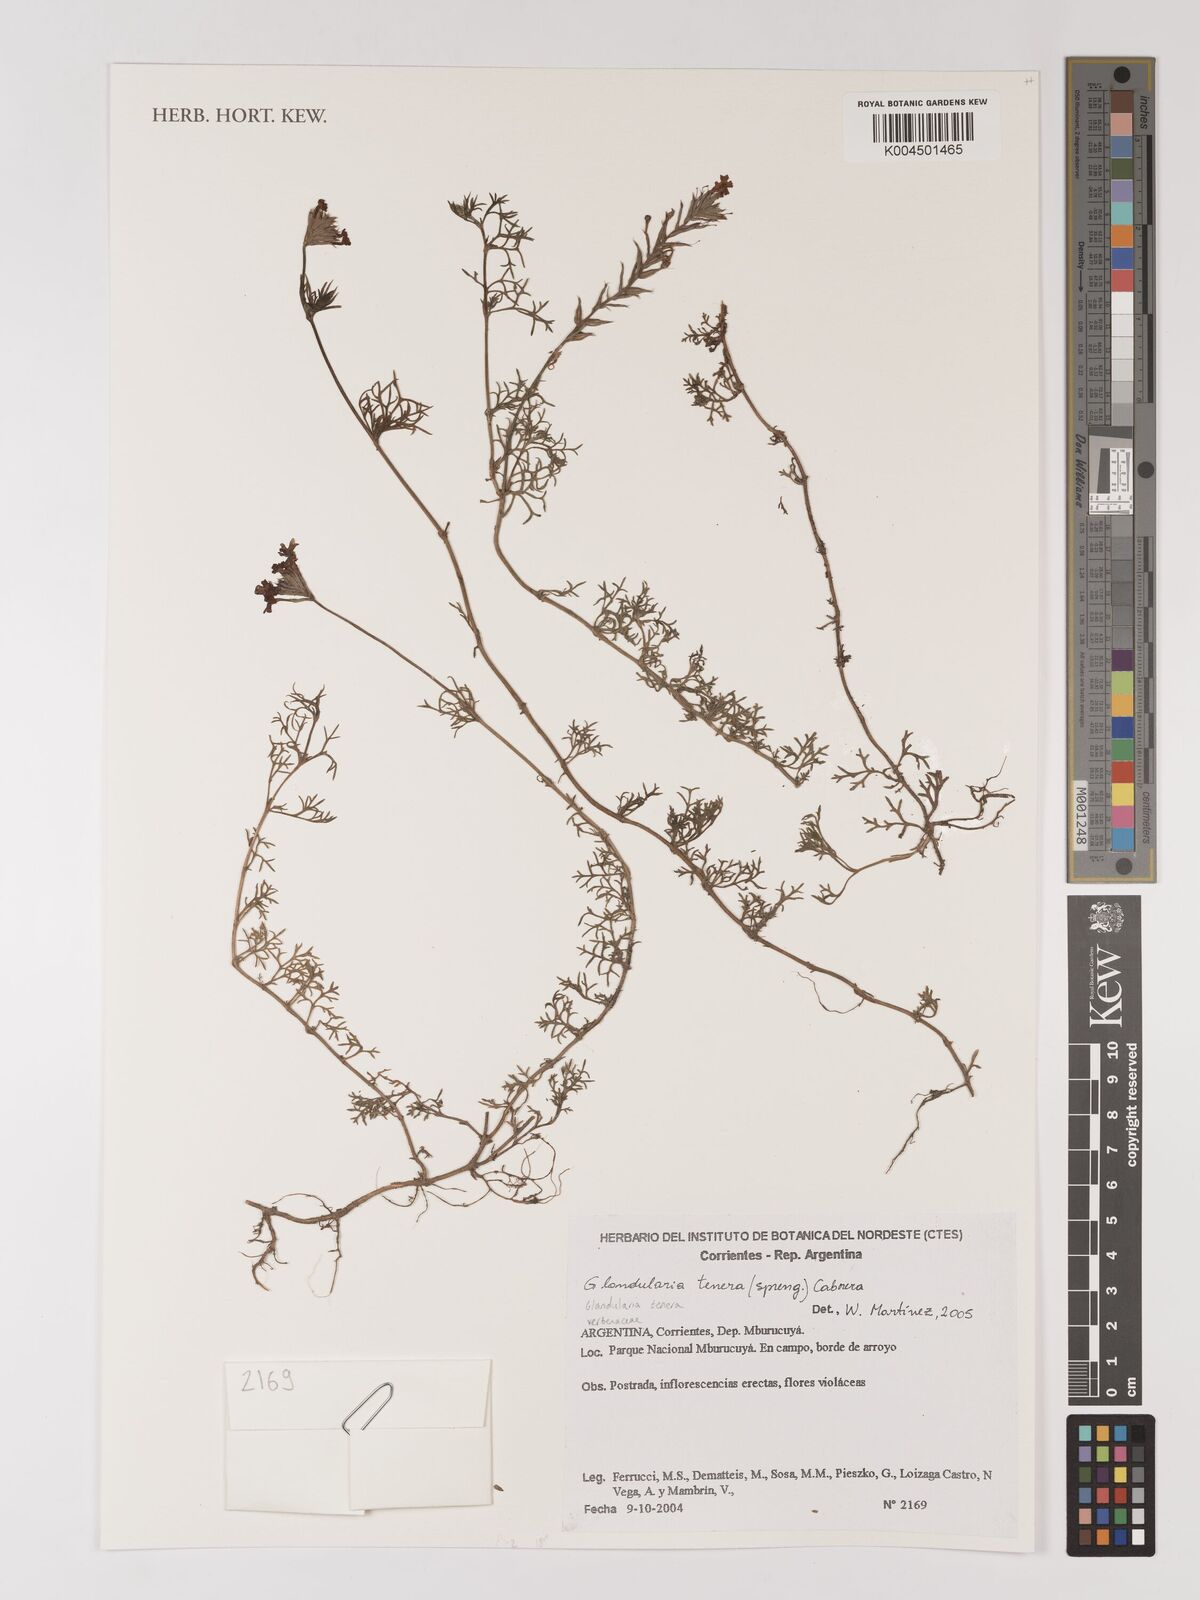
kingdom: Plantae
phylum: Tracheophyta
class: Magnoliopsida
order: Lamiales
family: Verbenaceae
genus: Verbena
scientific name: Verbena tenera
